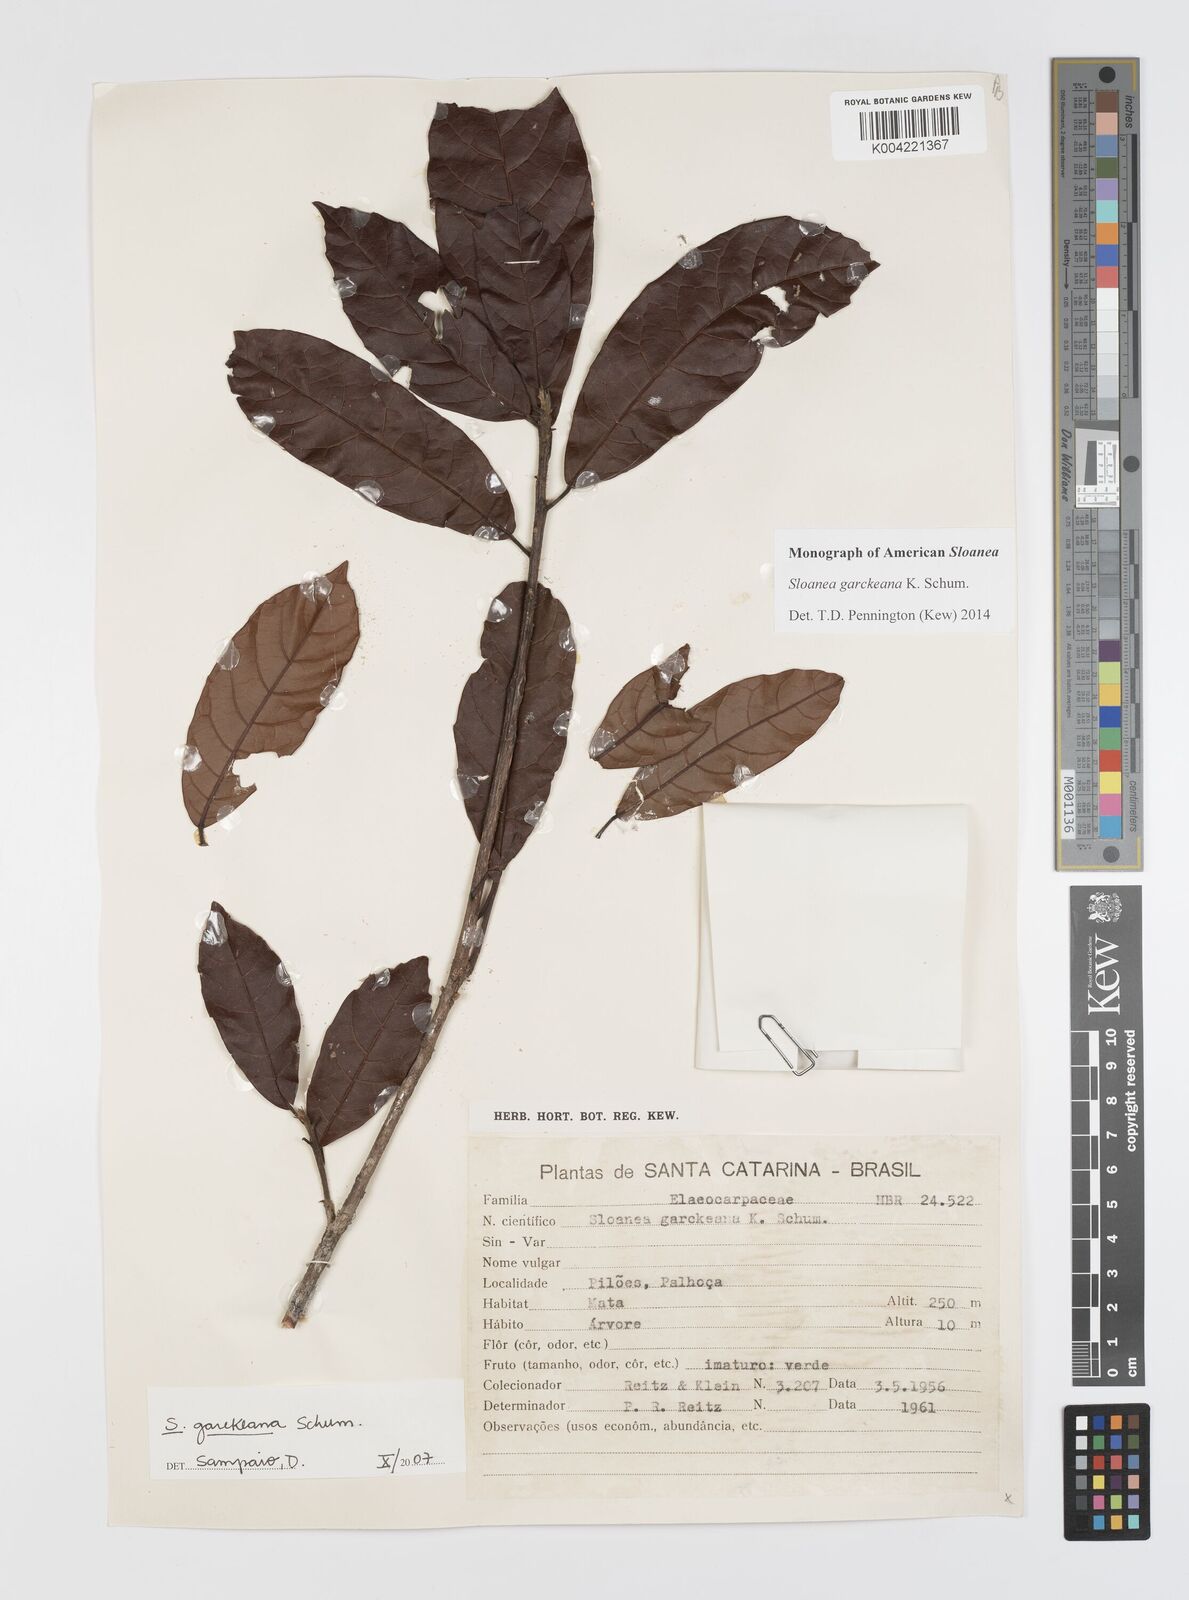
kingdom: Plantae
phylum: Tracheophyta
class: Magnoliopsida
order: Oxalidales
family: Elaeocarpaceae
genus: Sloanea
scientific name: Sloanea garckeana
